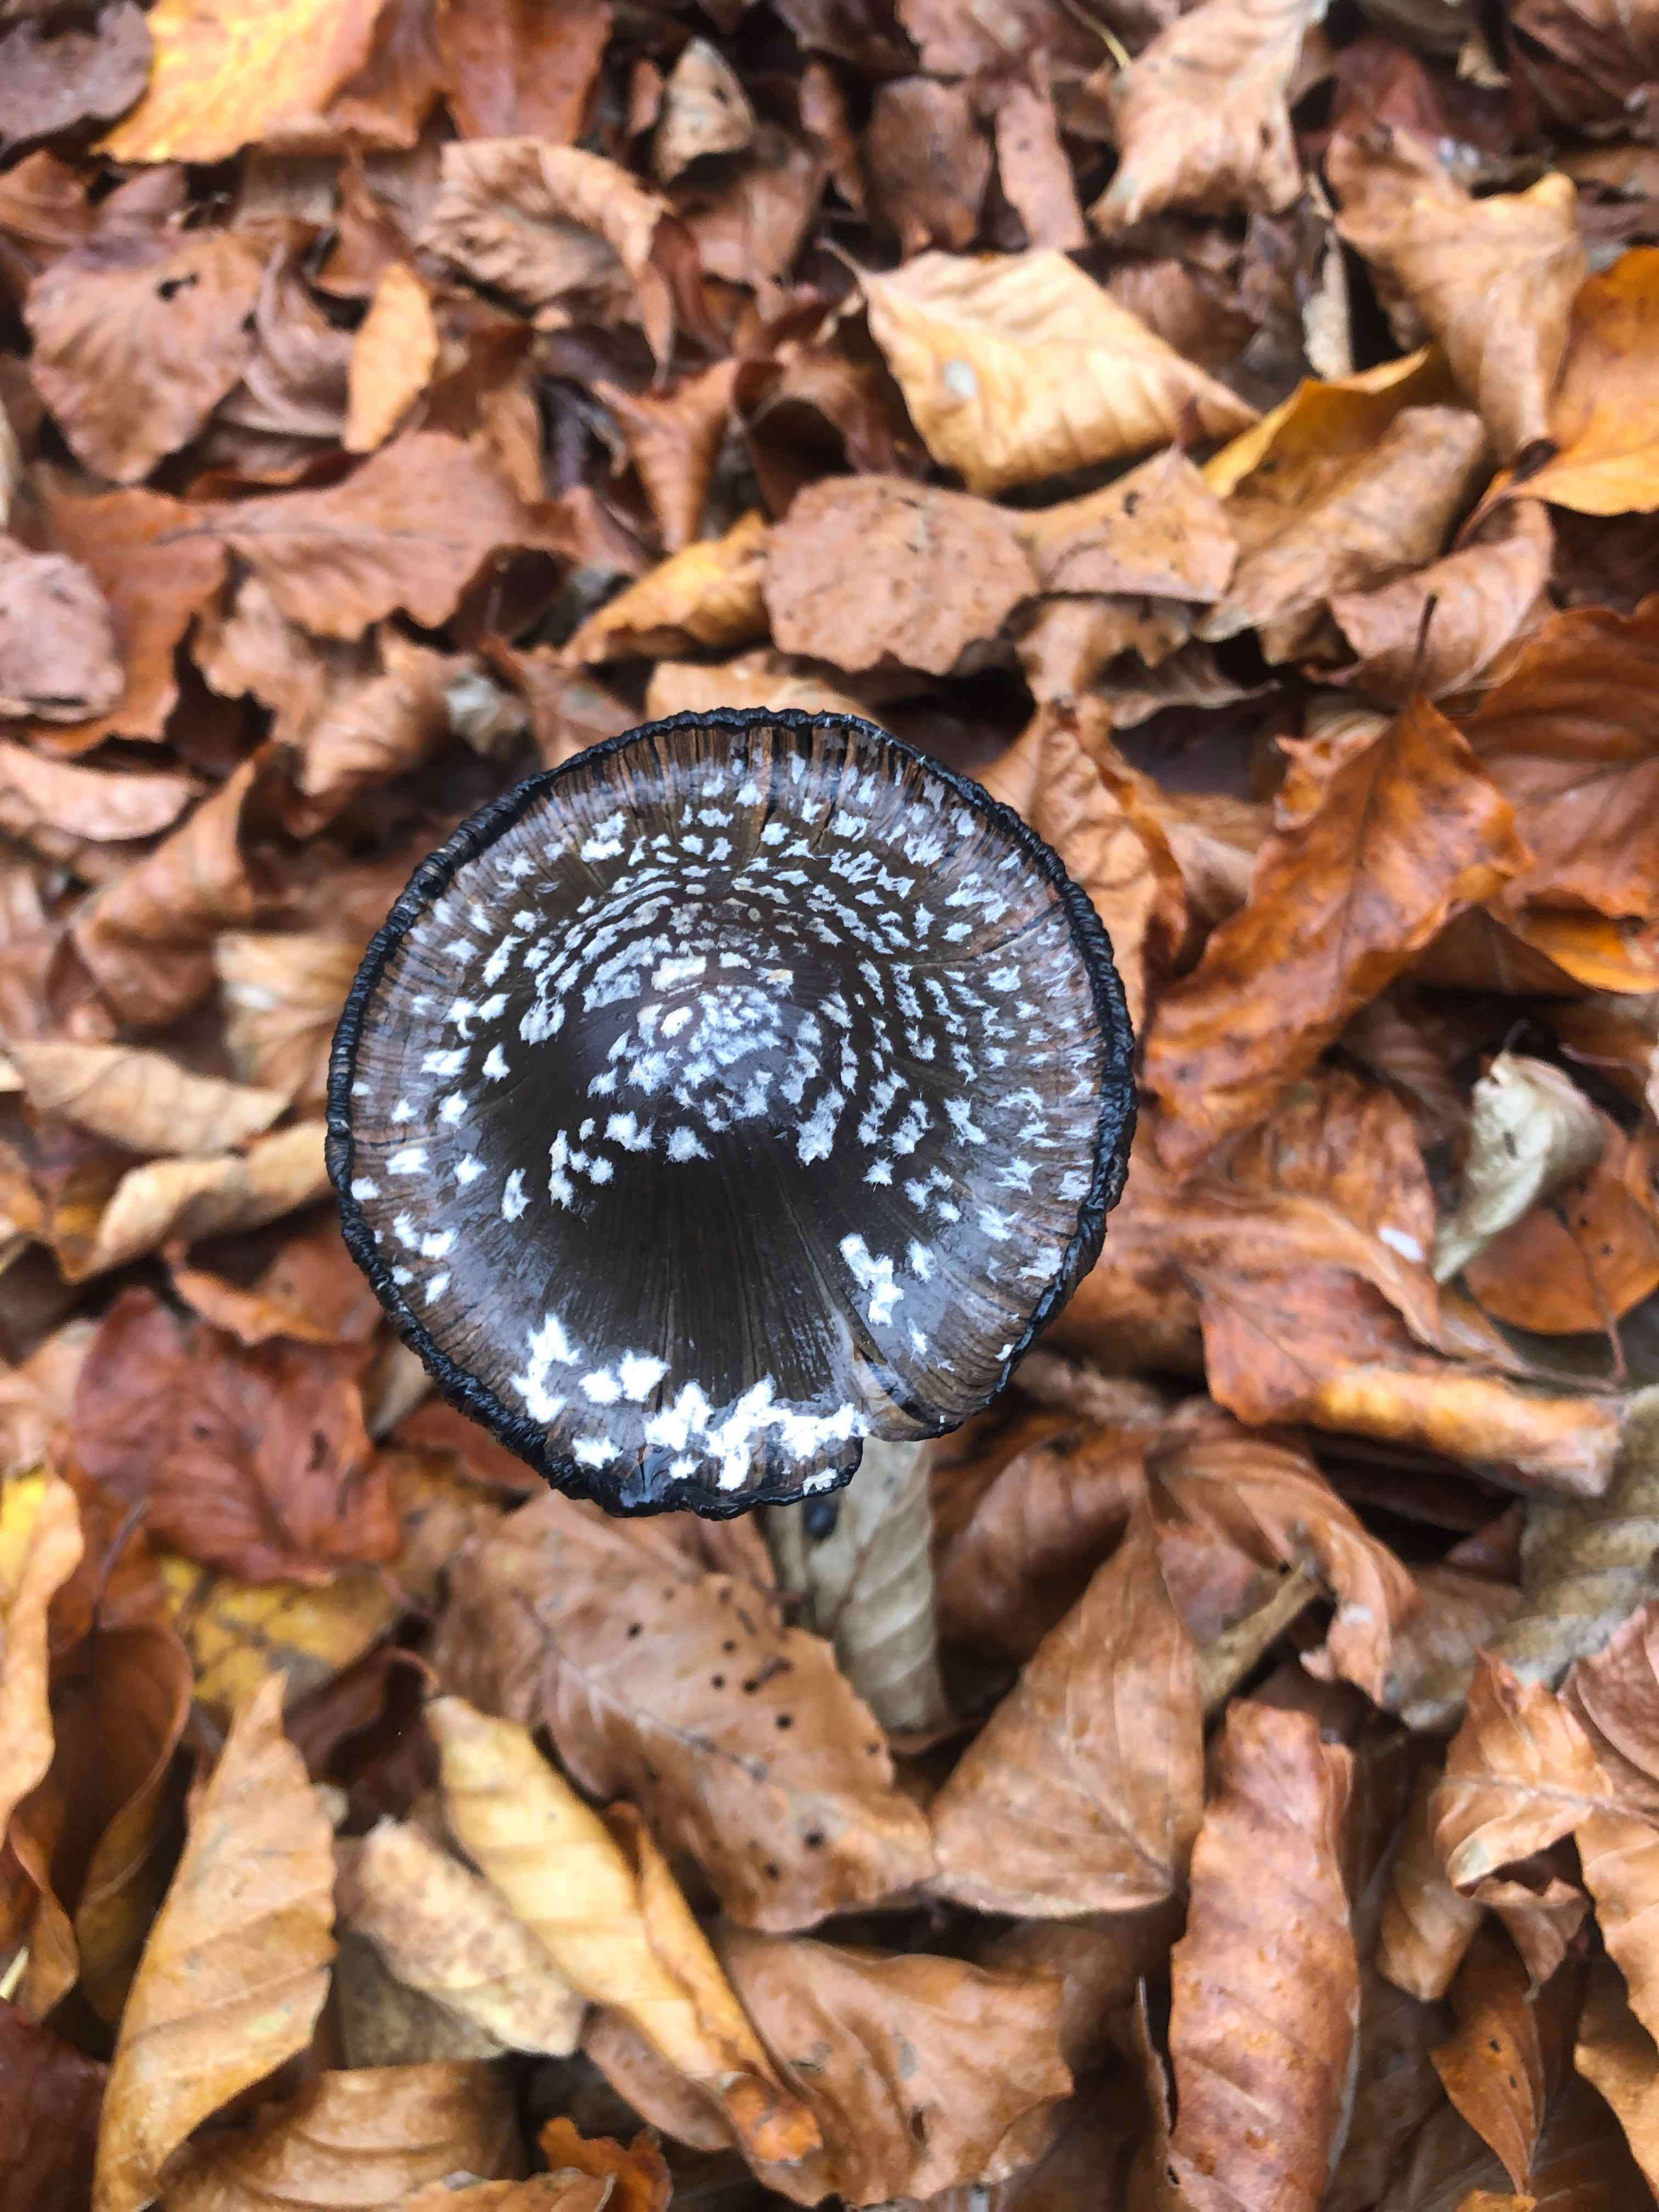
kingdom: Fungi
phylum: Basidiomycota
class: Agaricomycetes
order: Agaricales
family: Psathyrellaceae
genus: Coprinopsis
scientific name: Coprinopsis picacea
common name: skade-blækhat
